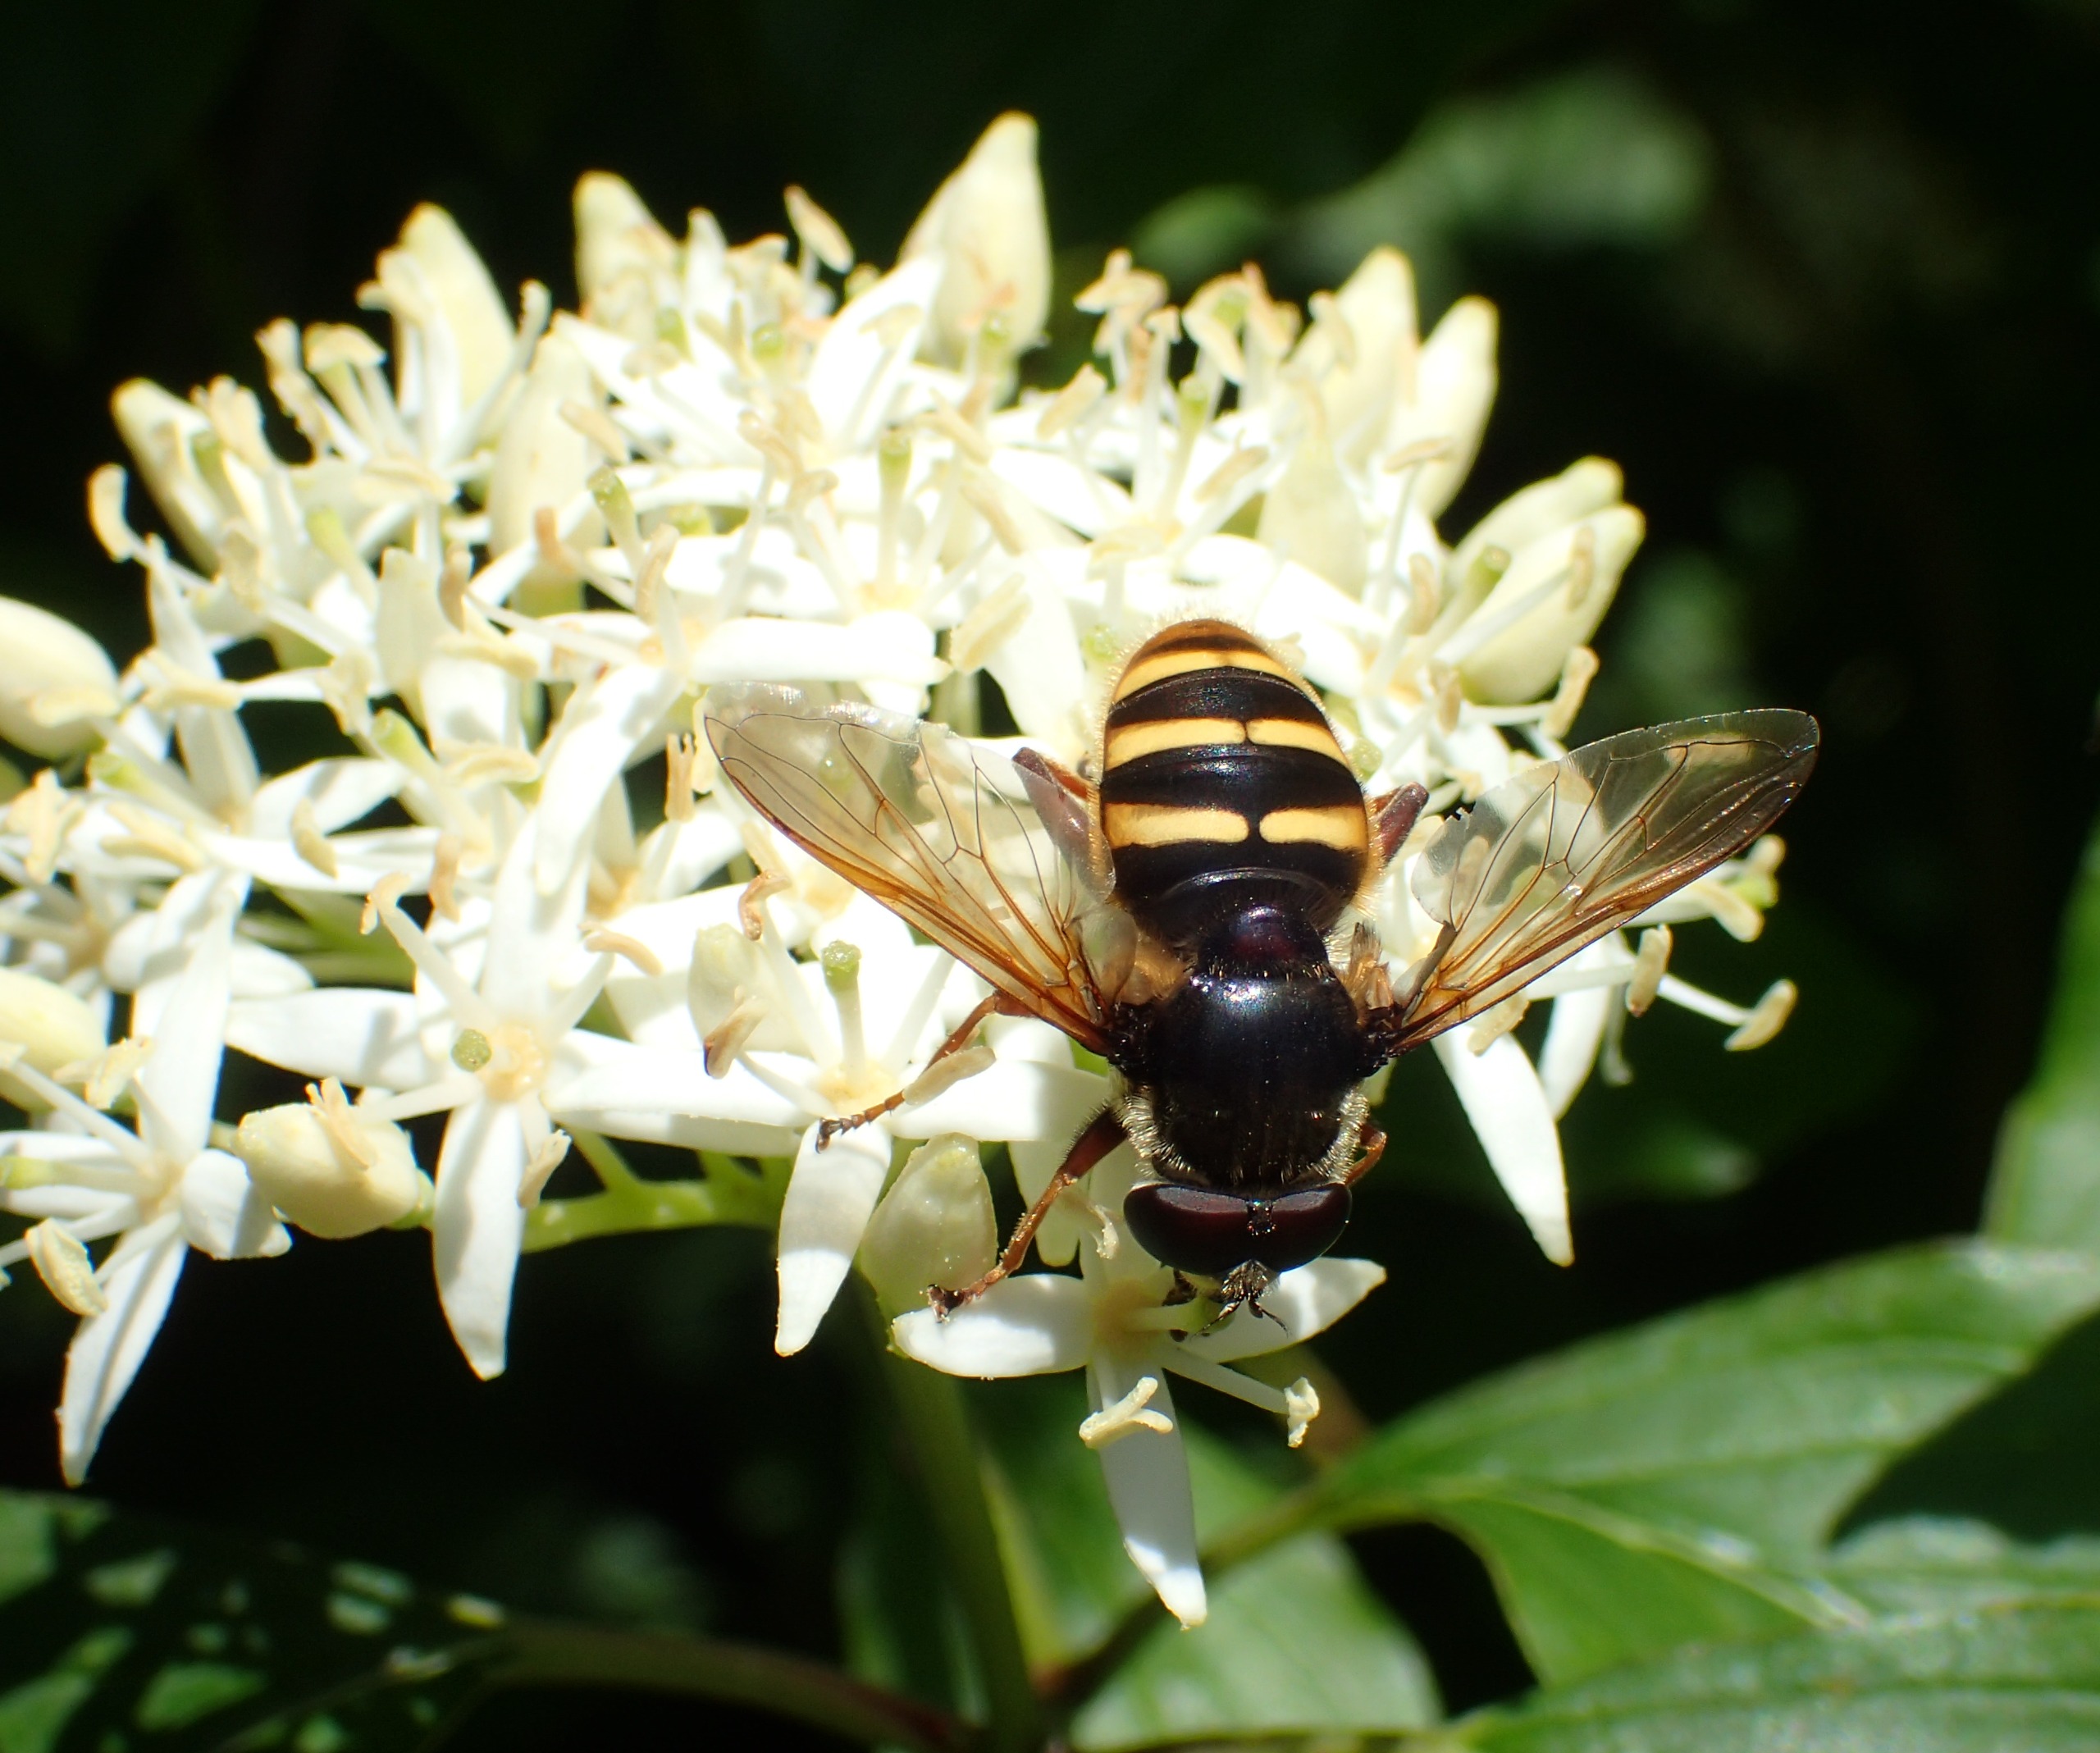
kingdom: Animalia
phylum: Arthropoda
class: Insecta
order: Diptera
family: Syrphidae
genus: Sericomyia
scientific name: Sericomyia silentis
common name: Tørve-silkesvirreflue
